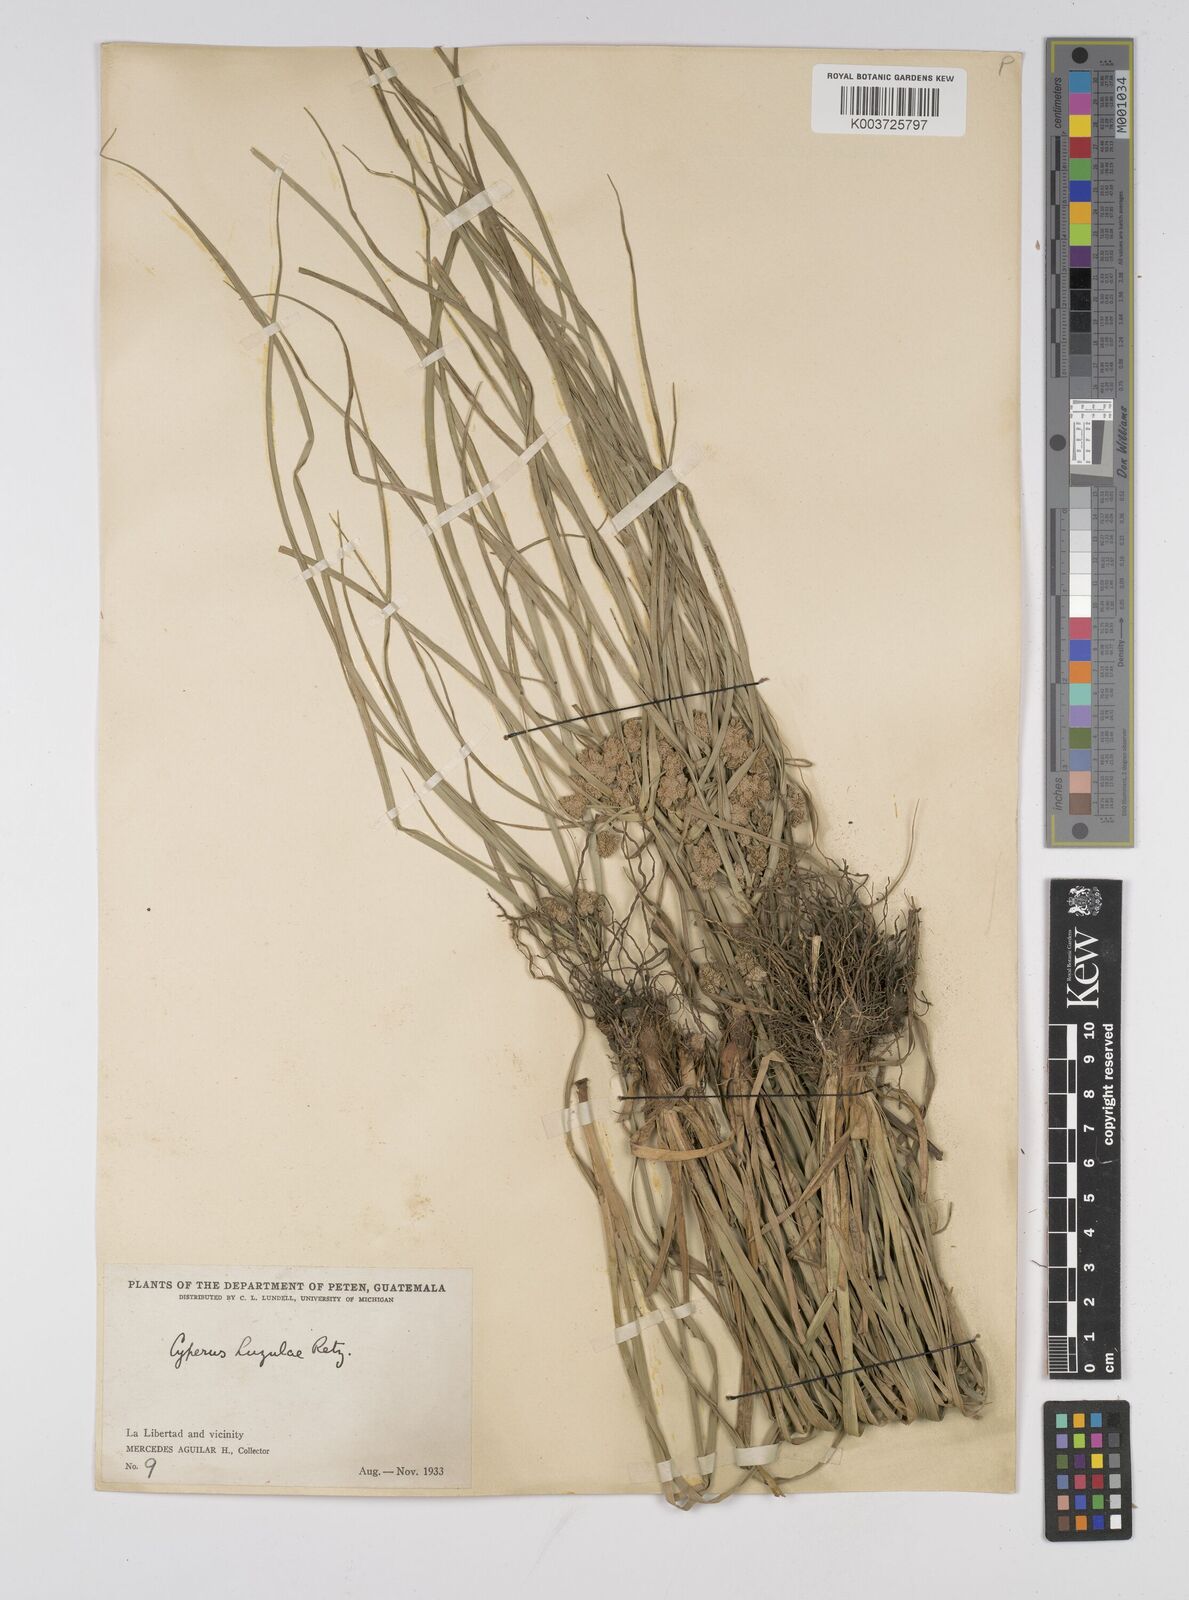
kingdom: Plantae
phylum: Tracheophyta
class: Liliopsida
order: Poales
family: Cyperaceae
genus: Cyperus
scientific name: Cyperus luzulae
